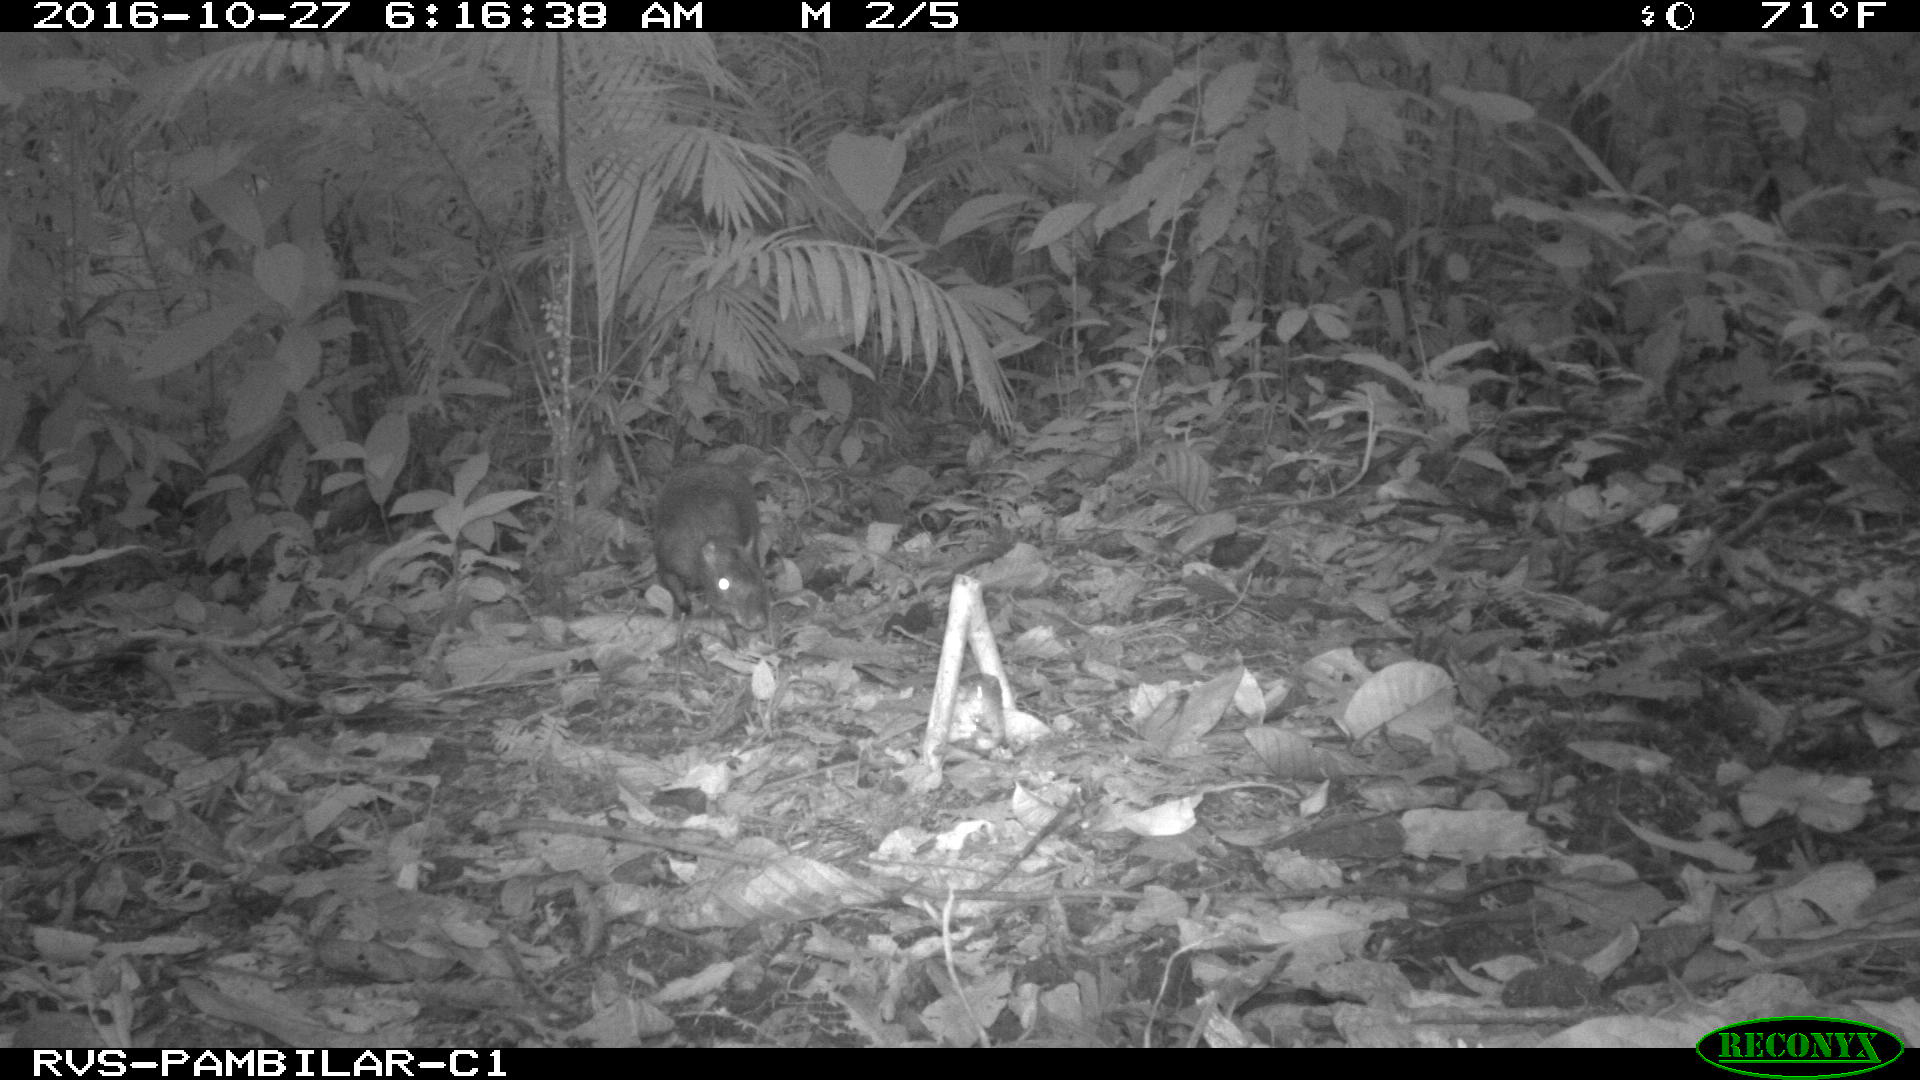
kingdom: Animalia
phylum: Chordata
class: Mammalia
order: Rodentia
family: Dasyproctidae
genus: Dasyprocta
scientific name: Dasyprocta punctata
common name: Central american agouti
